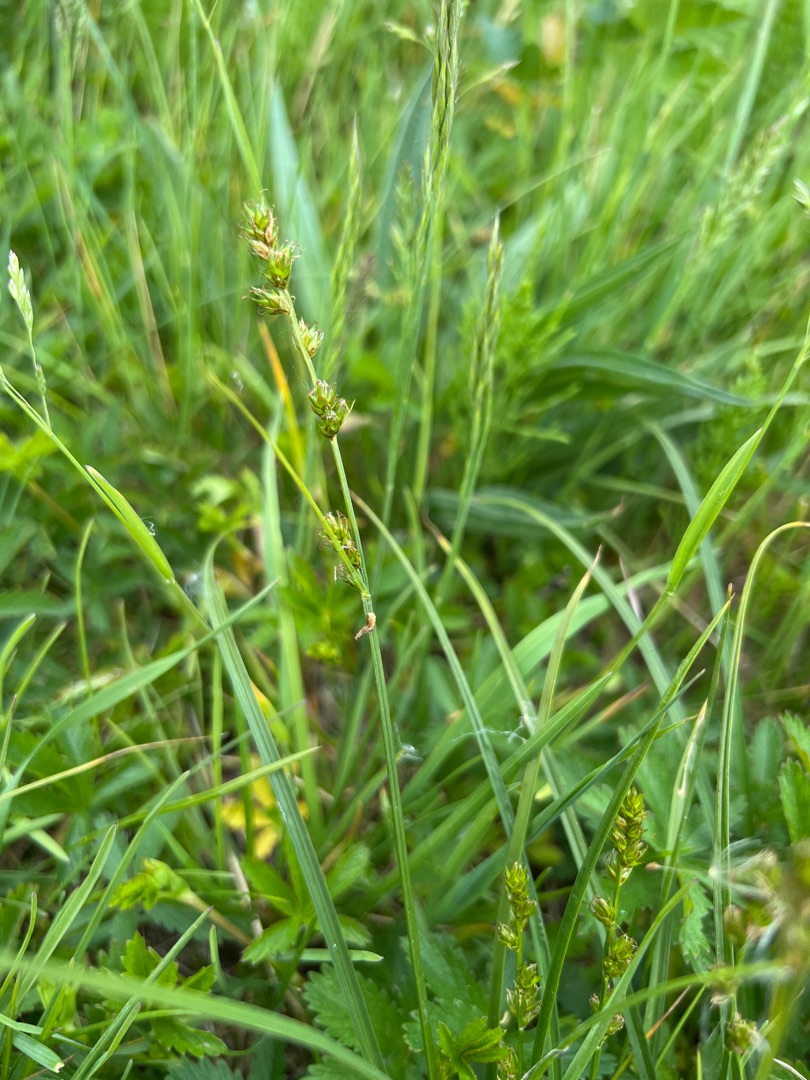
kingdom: Plantae
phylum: Tracheophyta
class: Liliopsida
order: Poales
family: Cyperaceae
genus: Carex
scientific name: Carex leersii
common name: Mellembrudt star (underart)
